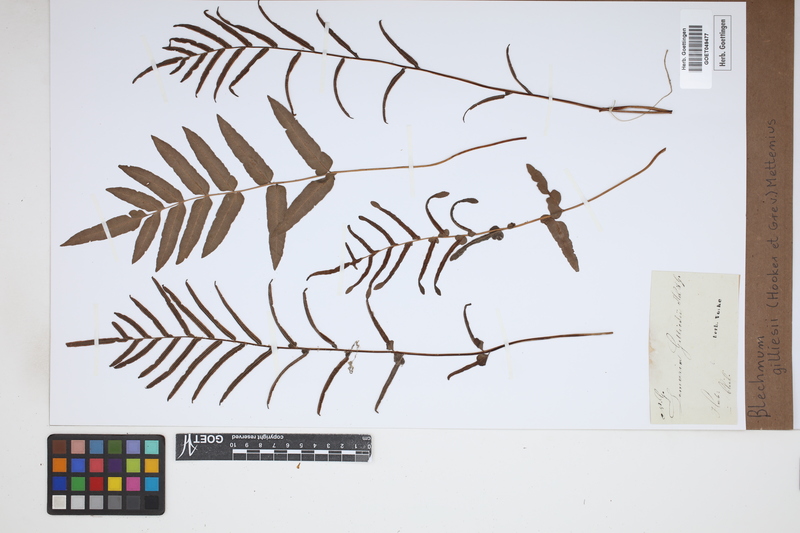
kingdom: Plantae
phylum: Tracheophyta
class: Polypodiopsida
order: Polypodiales
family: Blechnaceae
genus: Parablechnum
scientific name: Parablechnum cordatum
